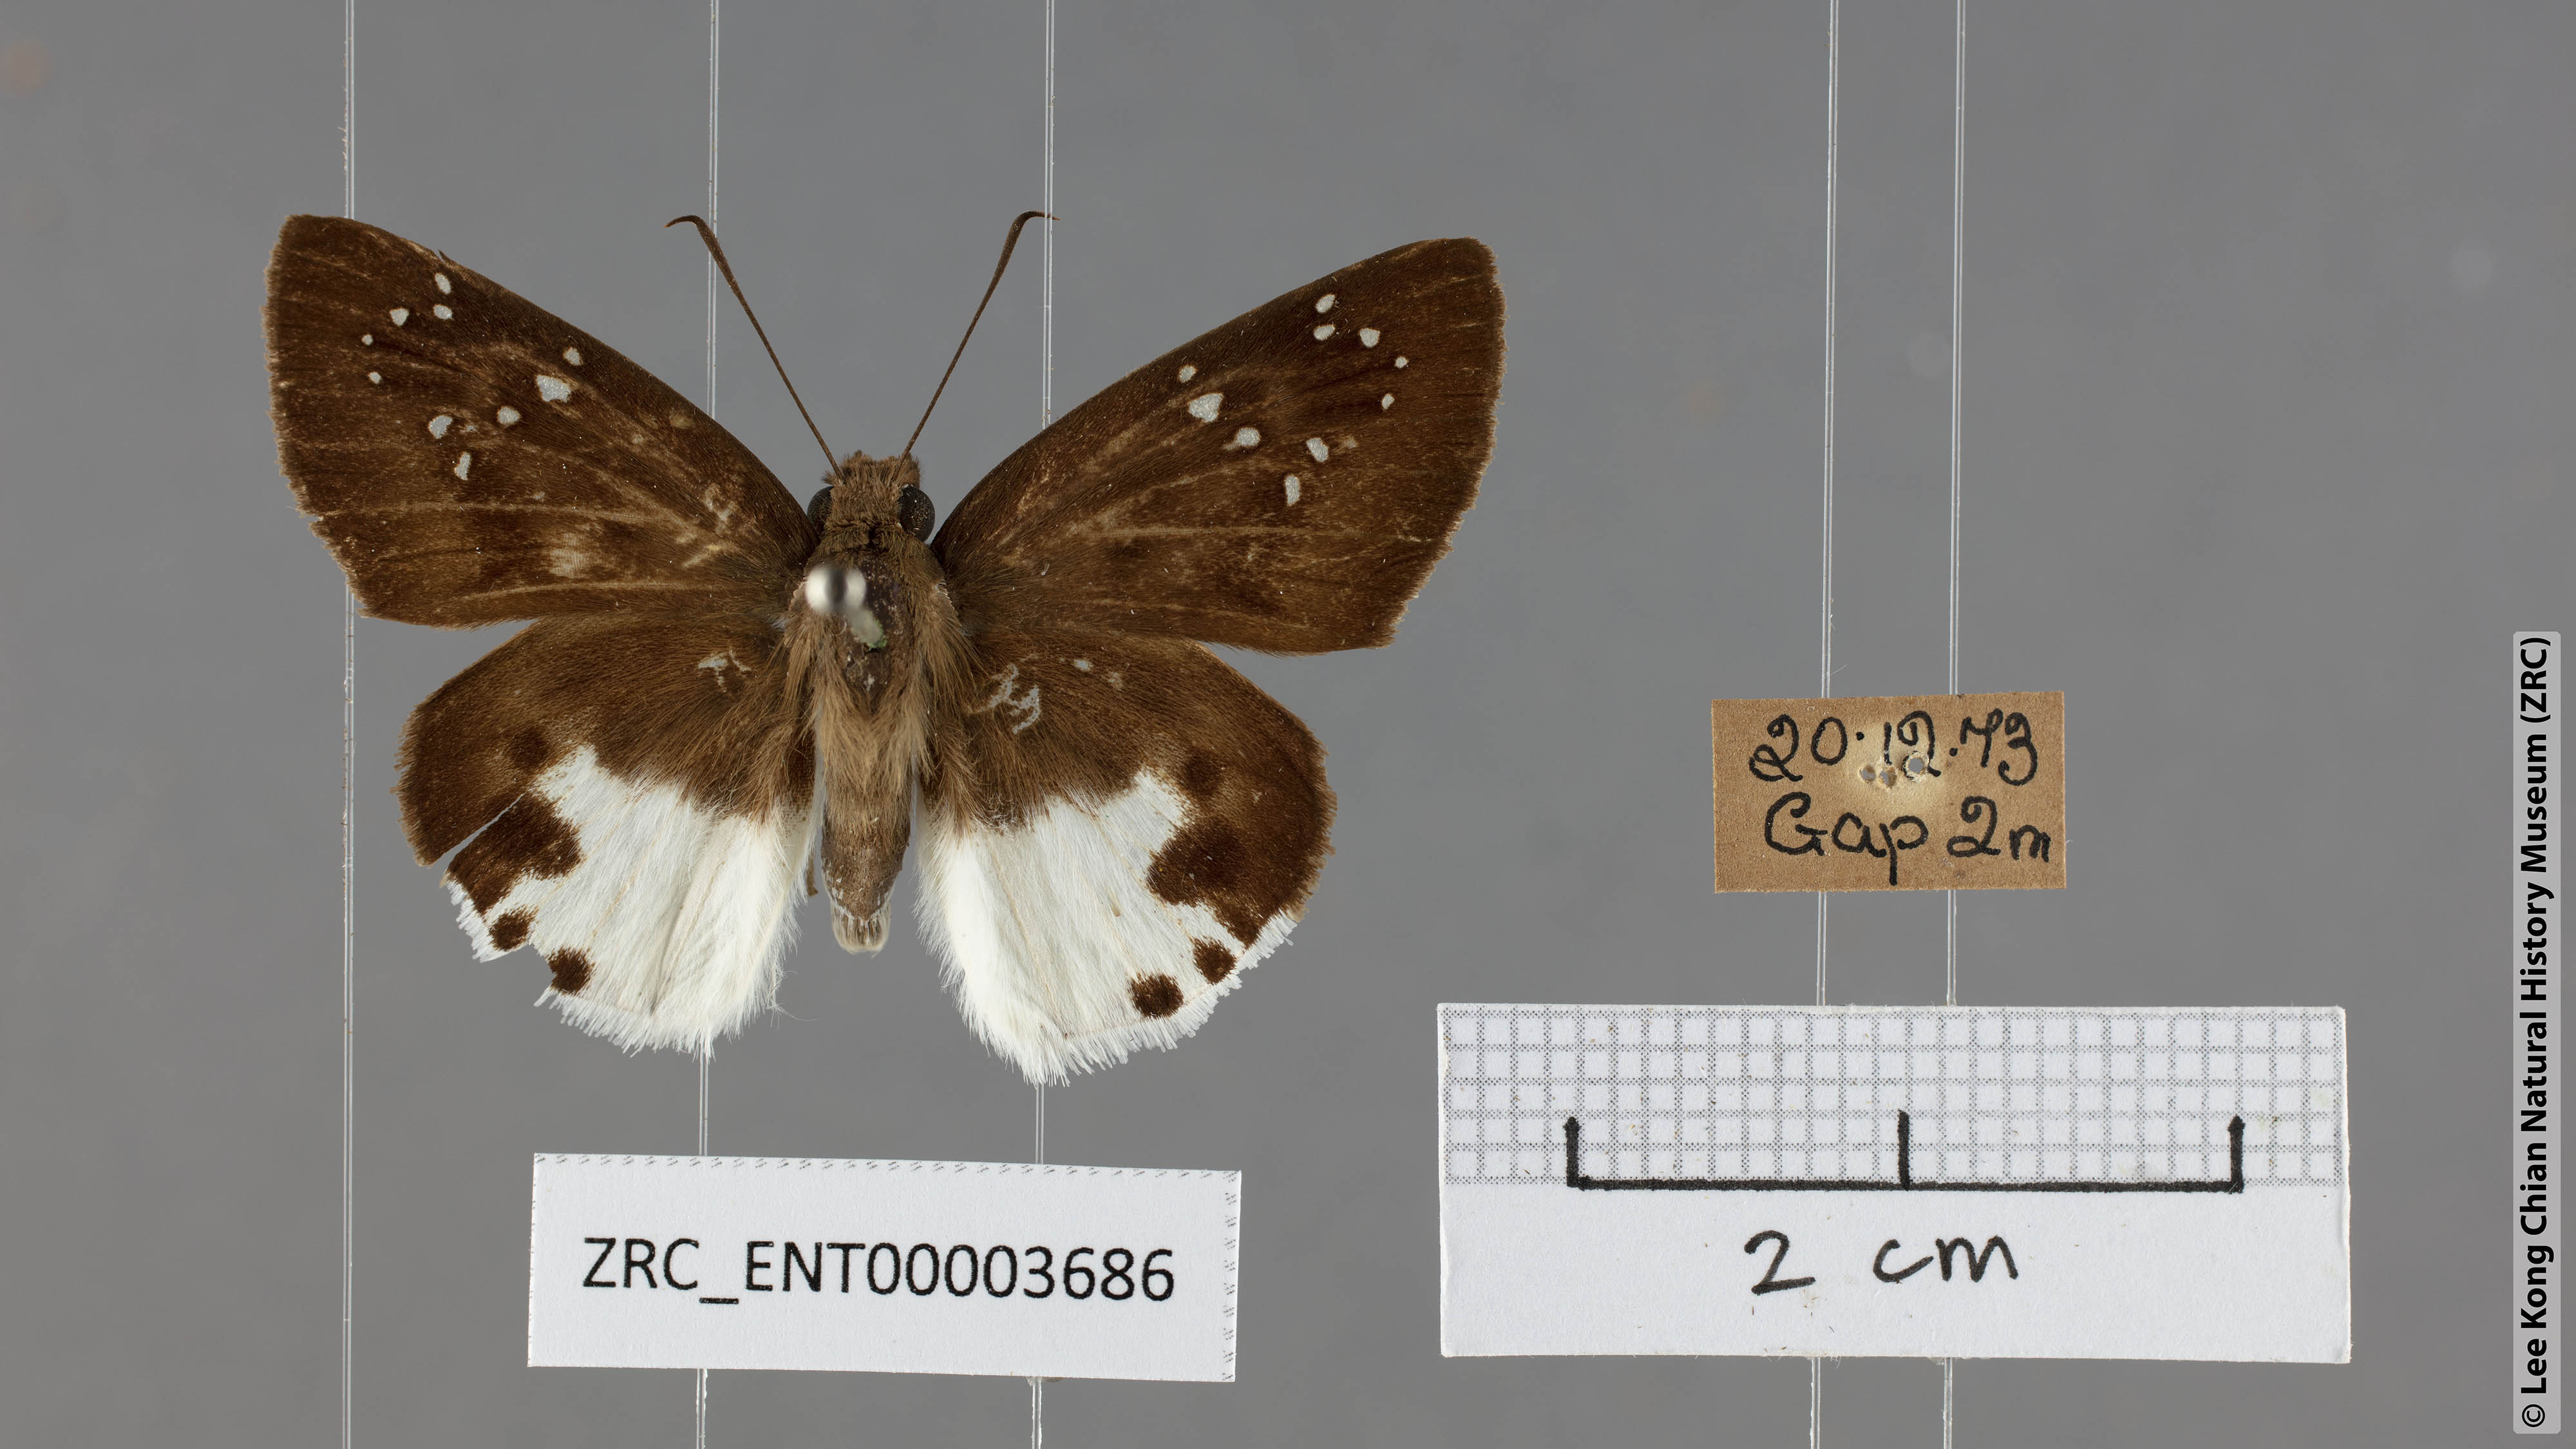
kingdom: Animalia
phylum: Arthropoda
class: Insecta
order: Lepidoptera
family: Hesperiidae
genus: Tagiades
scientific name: Tagiades calligana
